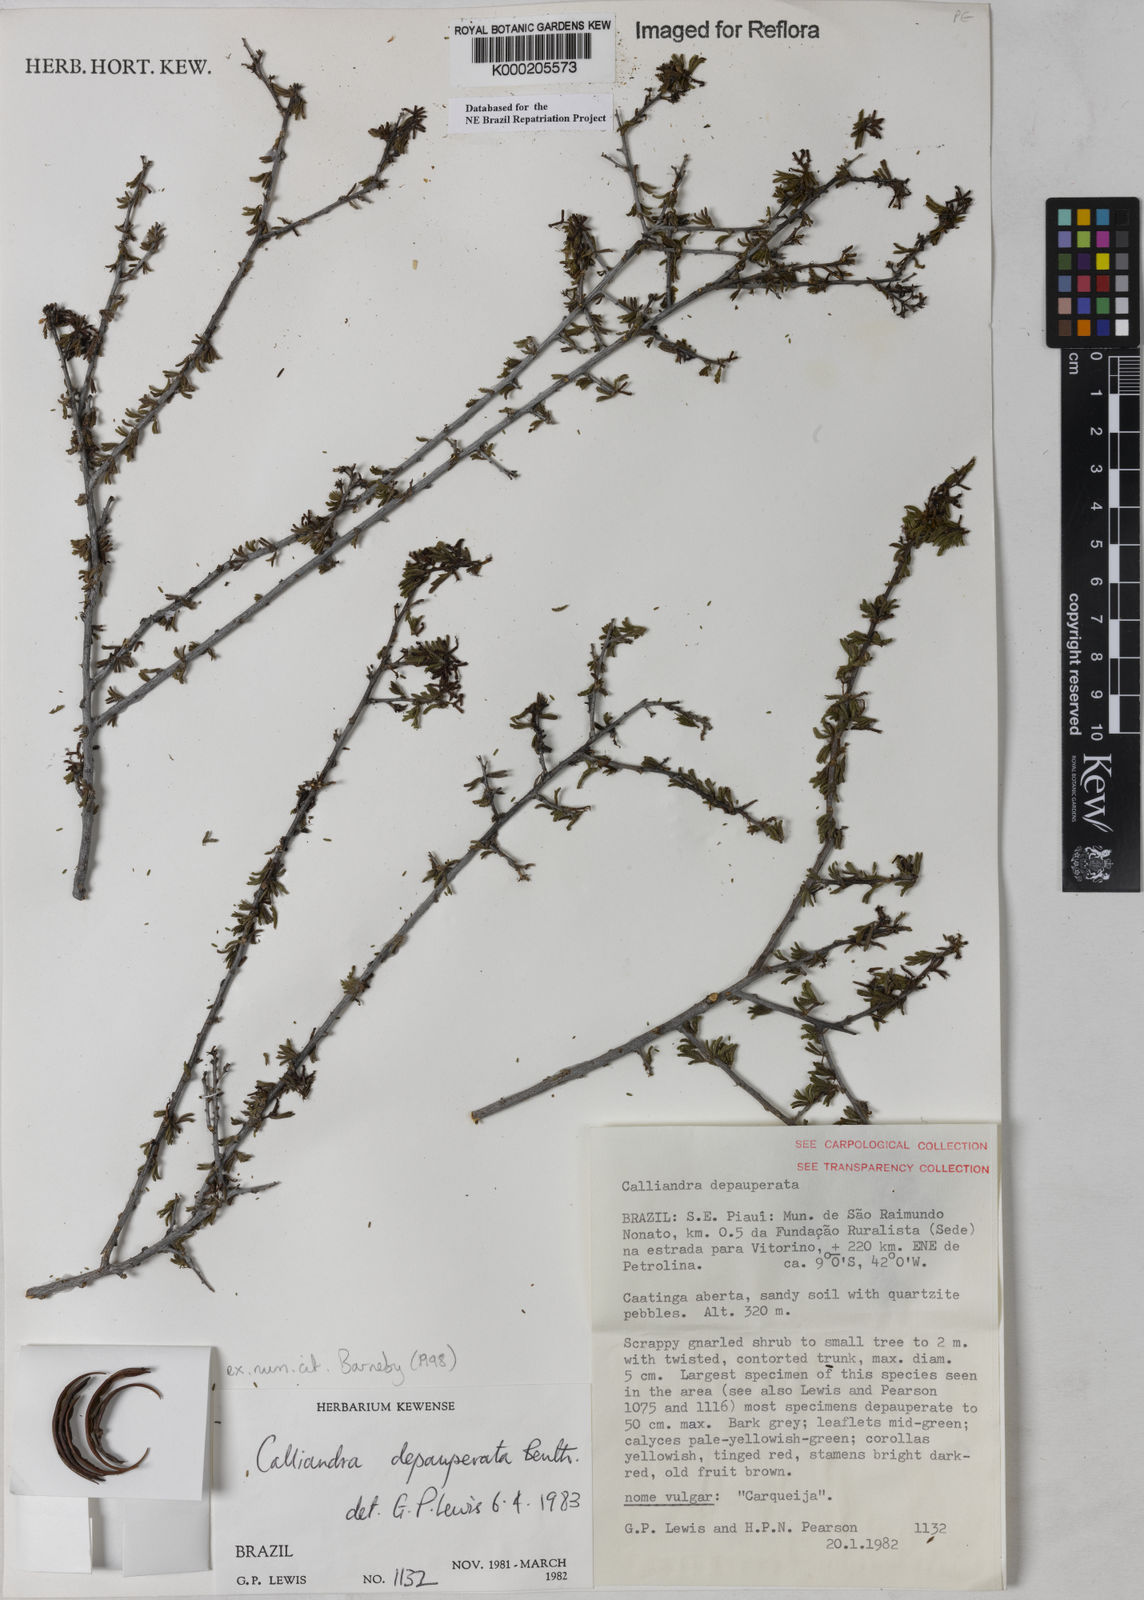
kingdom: Plantae
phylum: Tracheophyta
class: Magnoliopsida
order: Fabales
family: Fabaceae
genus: Calliandra
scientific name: Calliandra depauperata
